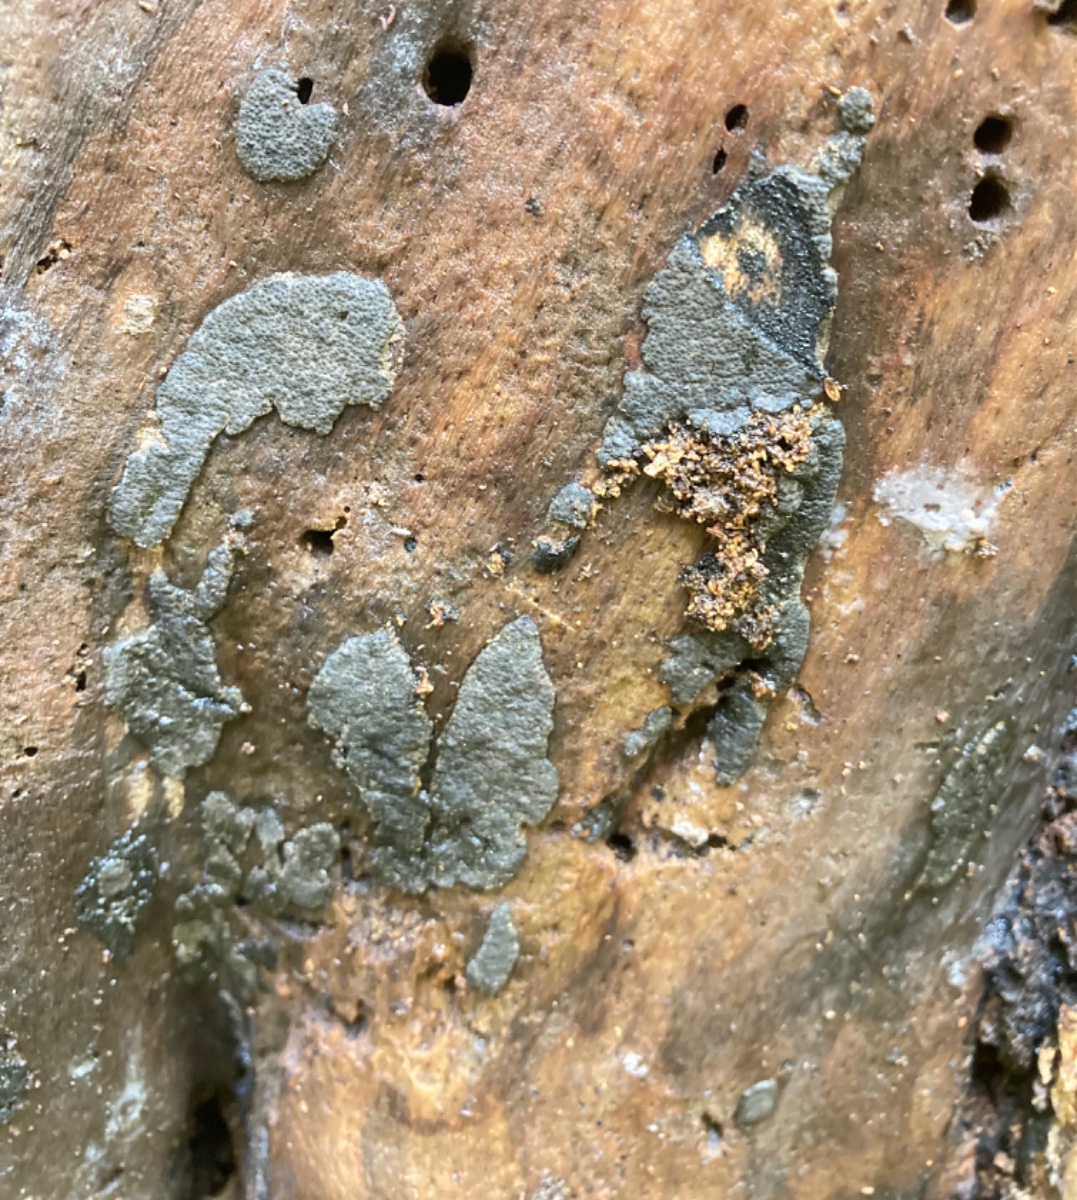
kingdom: Fungi
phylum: Ascomycota
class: Sordariomycetes
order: Xylariales
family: Xylariaceae
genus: Nemania
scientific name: Nemania chestersii
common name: stribesporet kuldyne
